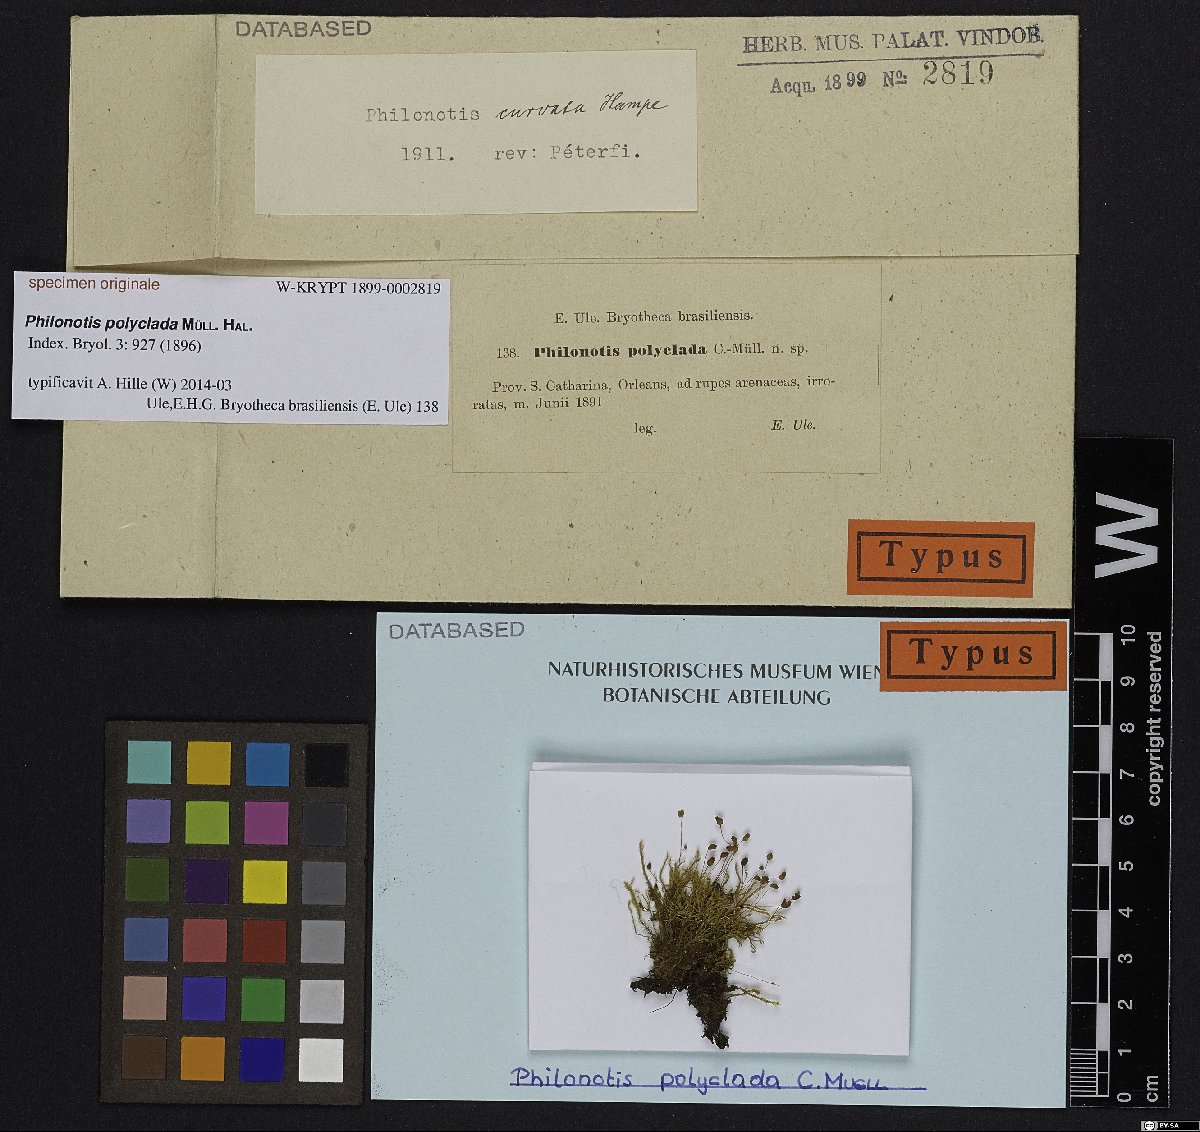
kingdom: Plantae
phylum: Bryophyta
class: Bryopsida
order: Bartramiales
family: Bartramiaceae
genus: Philonotis
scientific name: Philonotis calcarea
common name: Thick-nerved apple-moss
